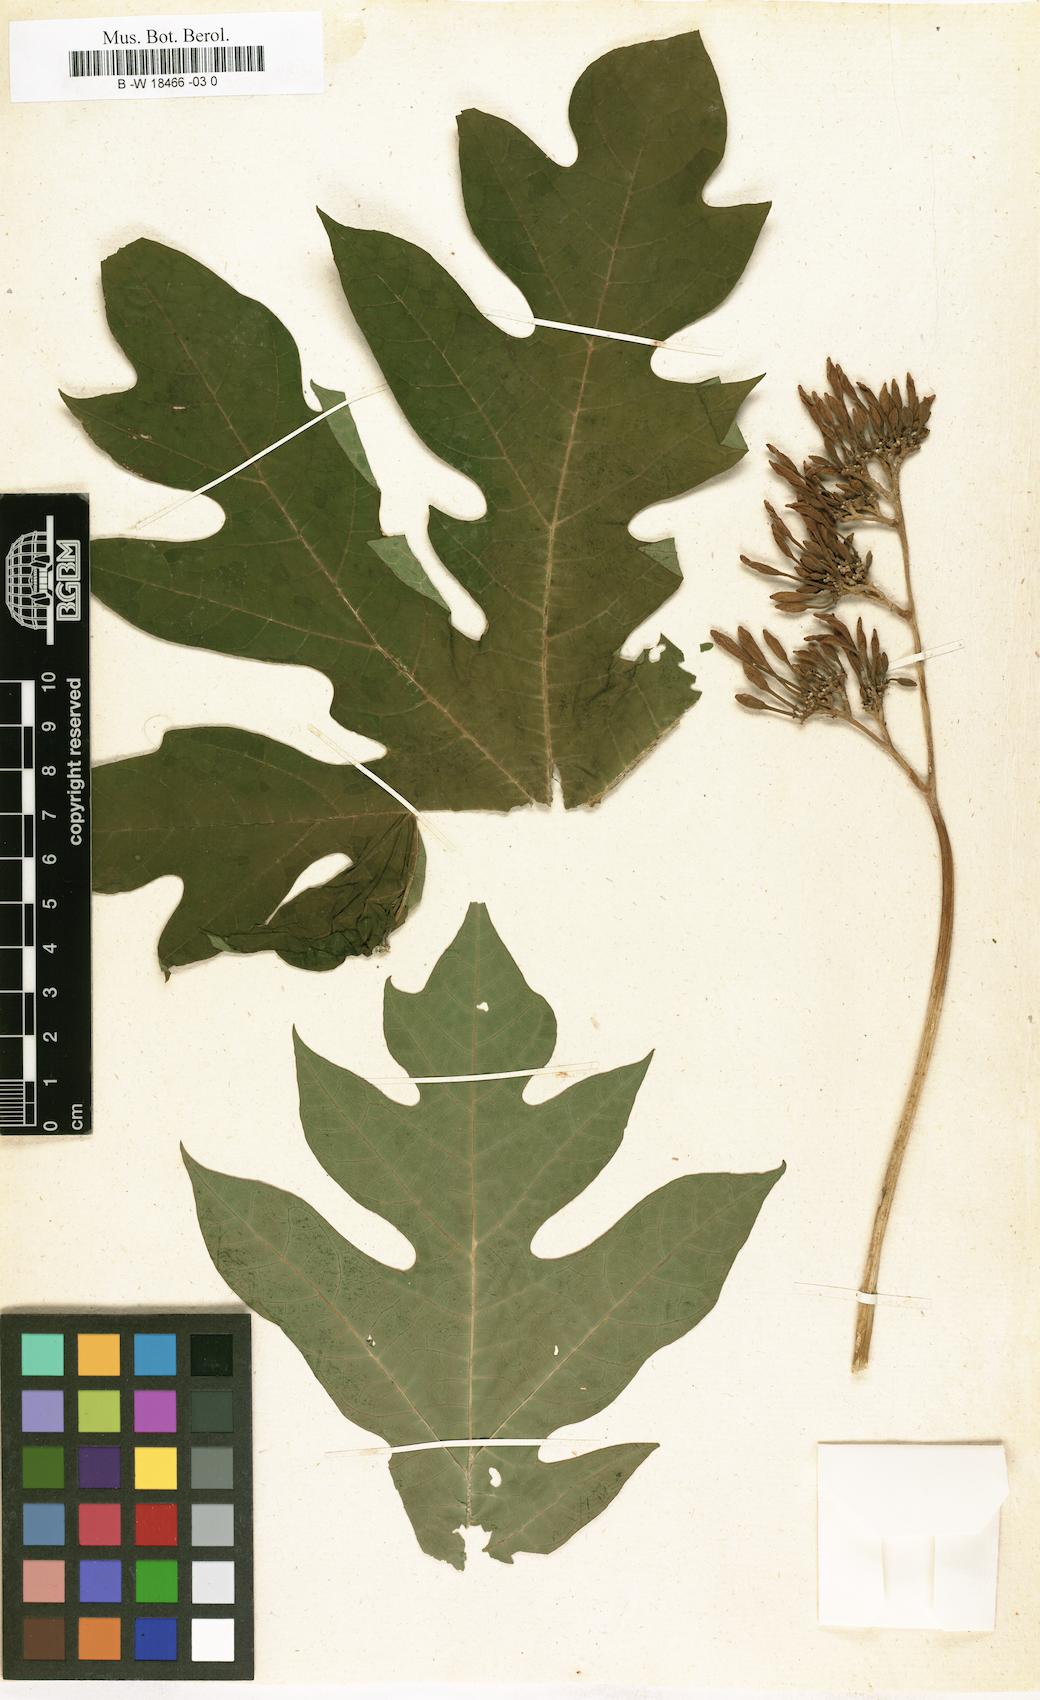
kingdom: Plantae
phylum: Tracheophyta
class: Magnoliopsida
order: Brassicales
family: Caricaceae
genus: Carica
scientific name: Carica papaya
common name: Papaya
